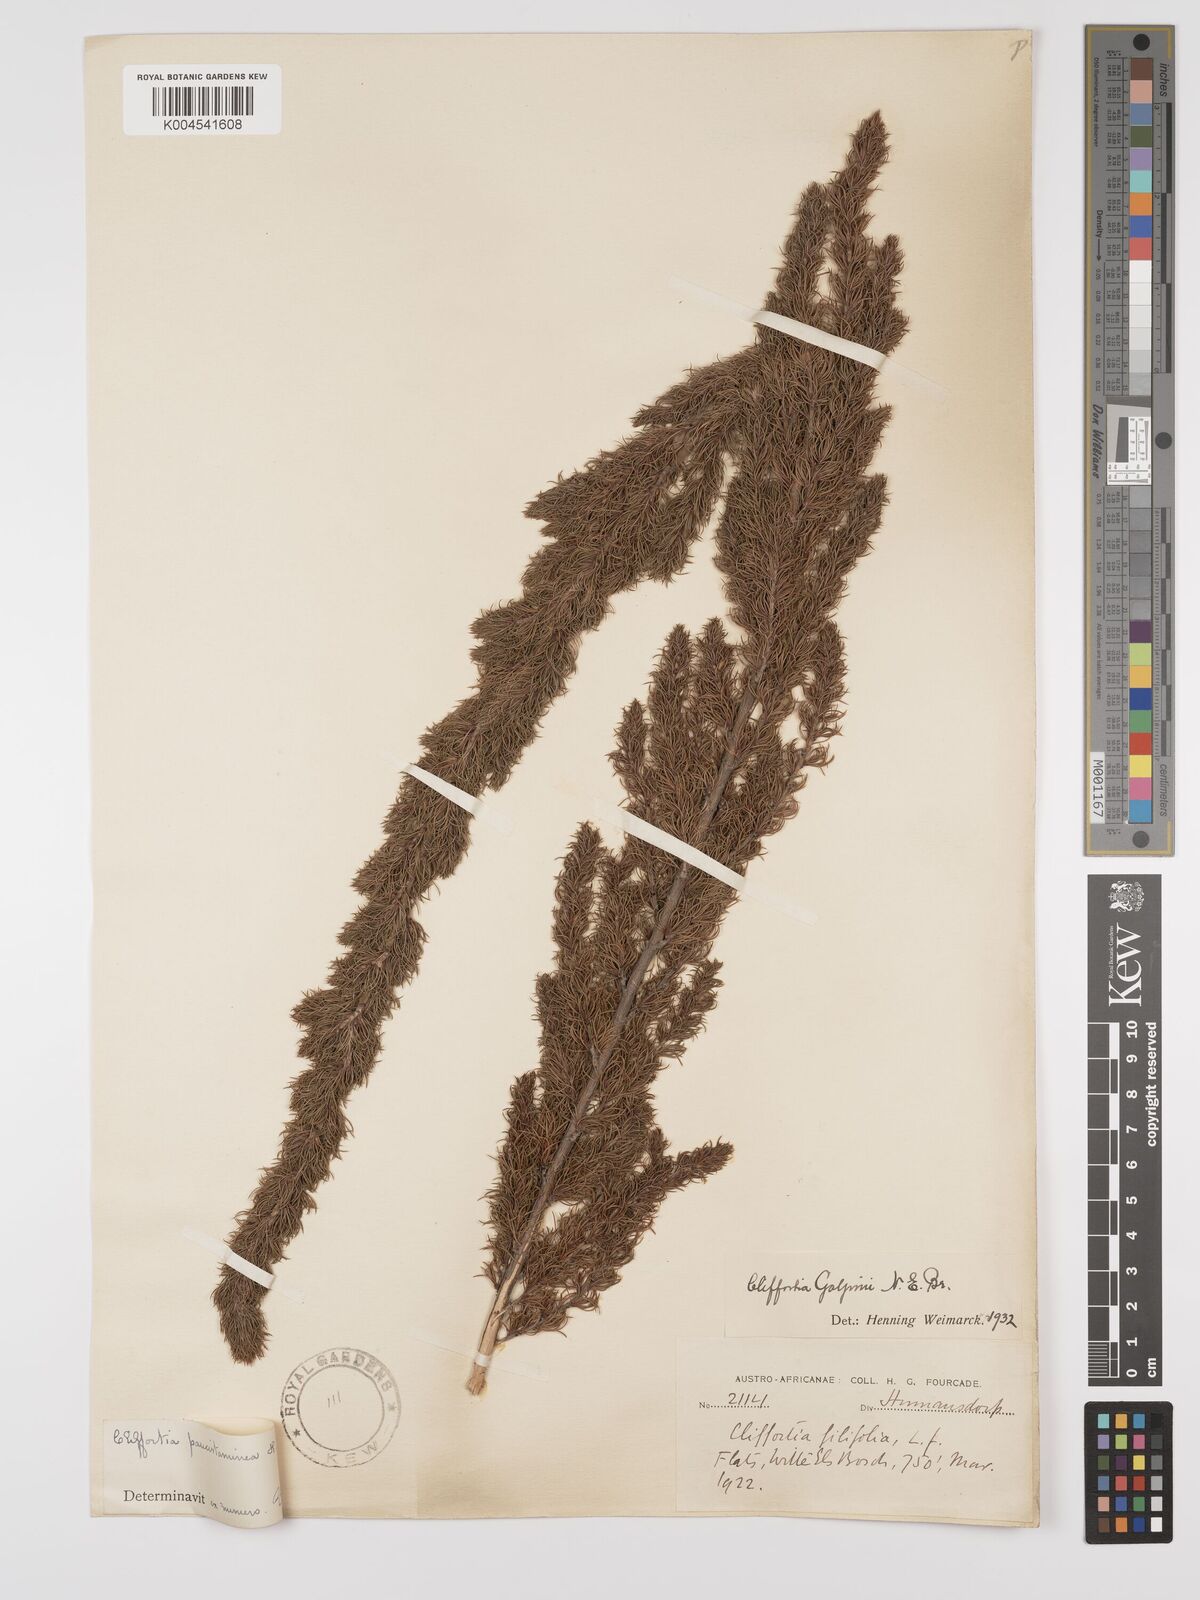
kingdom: Plantae
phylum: Tracheophyta
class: Magnoliopsida
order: Rosales
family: Rosaceae
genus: Cliffortia
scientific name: Cliffortia paucistaminea
